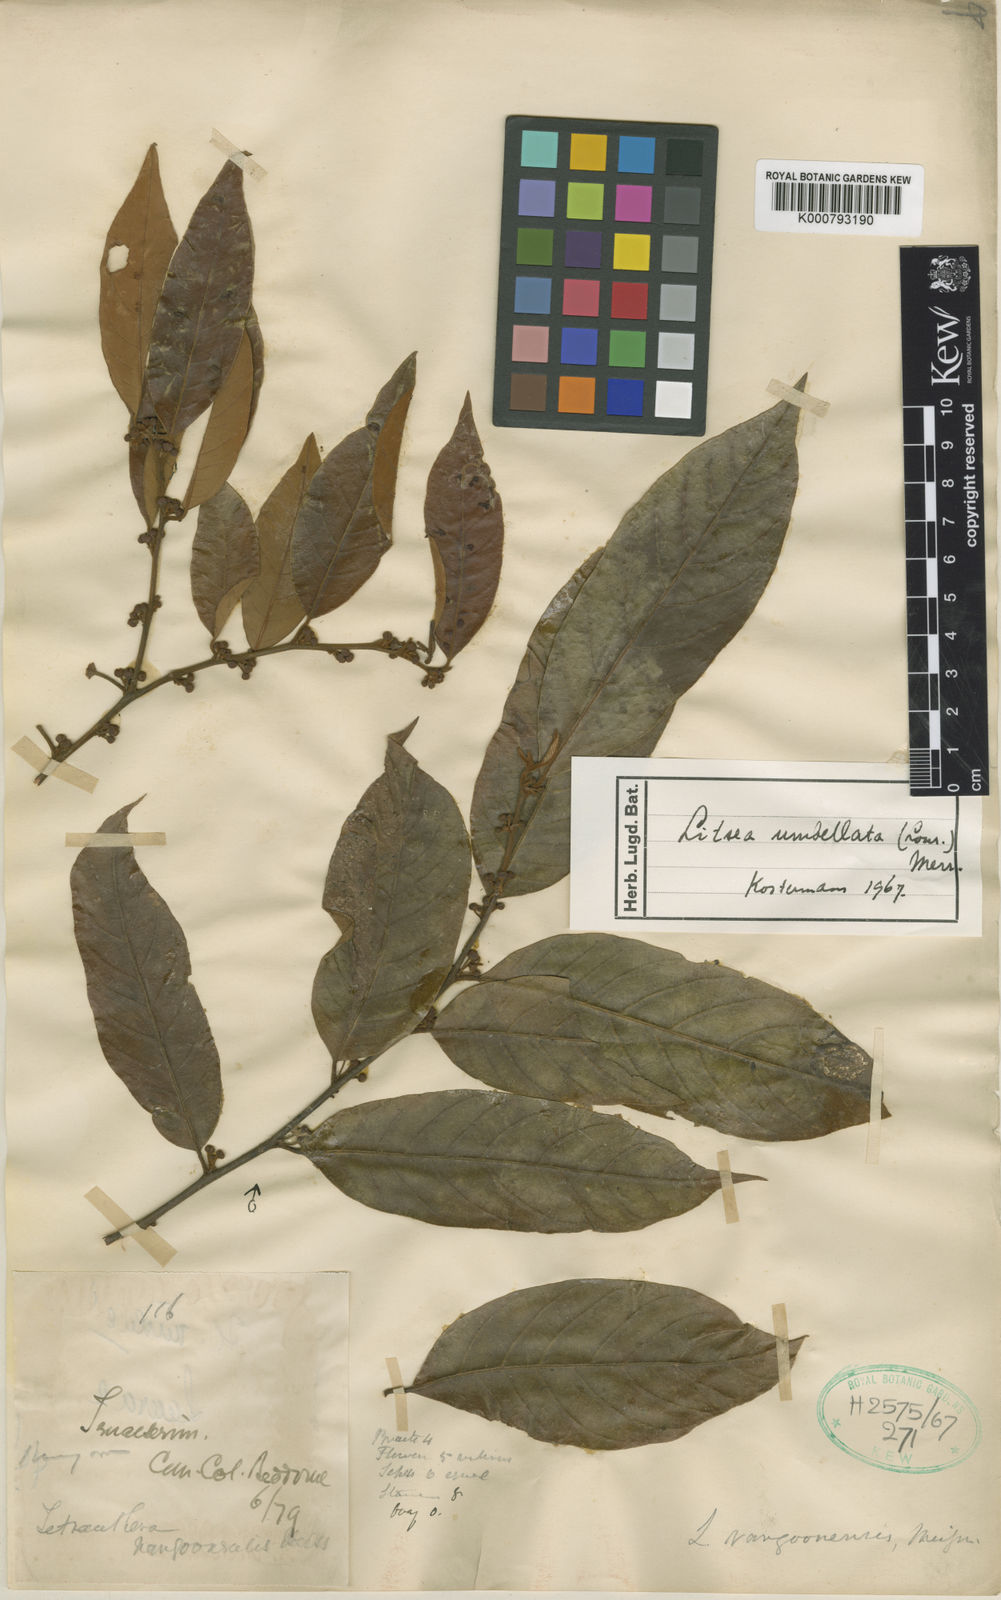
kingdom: Plantae
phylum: Tracheophyta
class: Magnoliopsida
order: Laurales
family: Lauraceae
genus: Litsea
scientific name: Litsea umbellata
